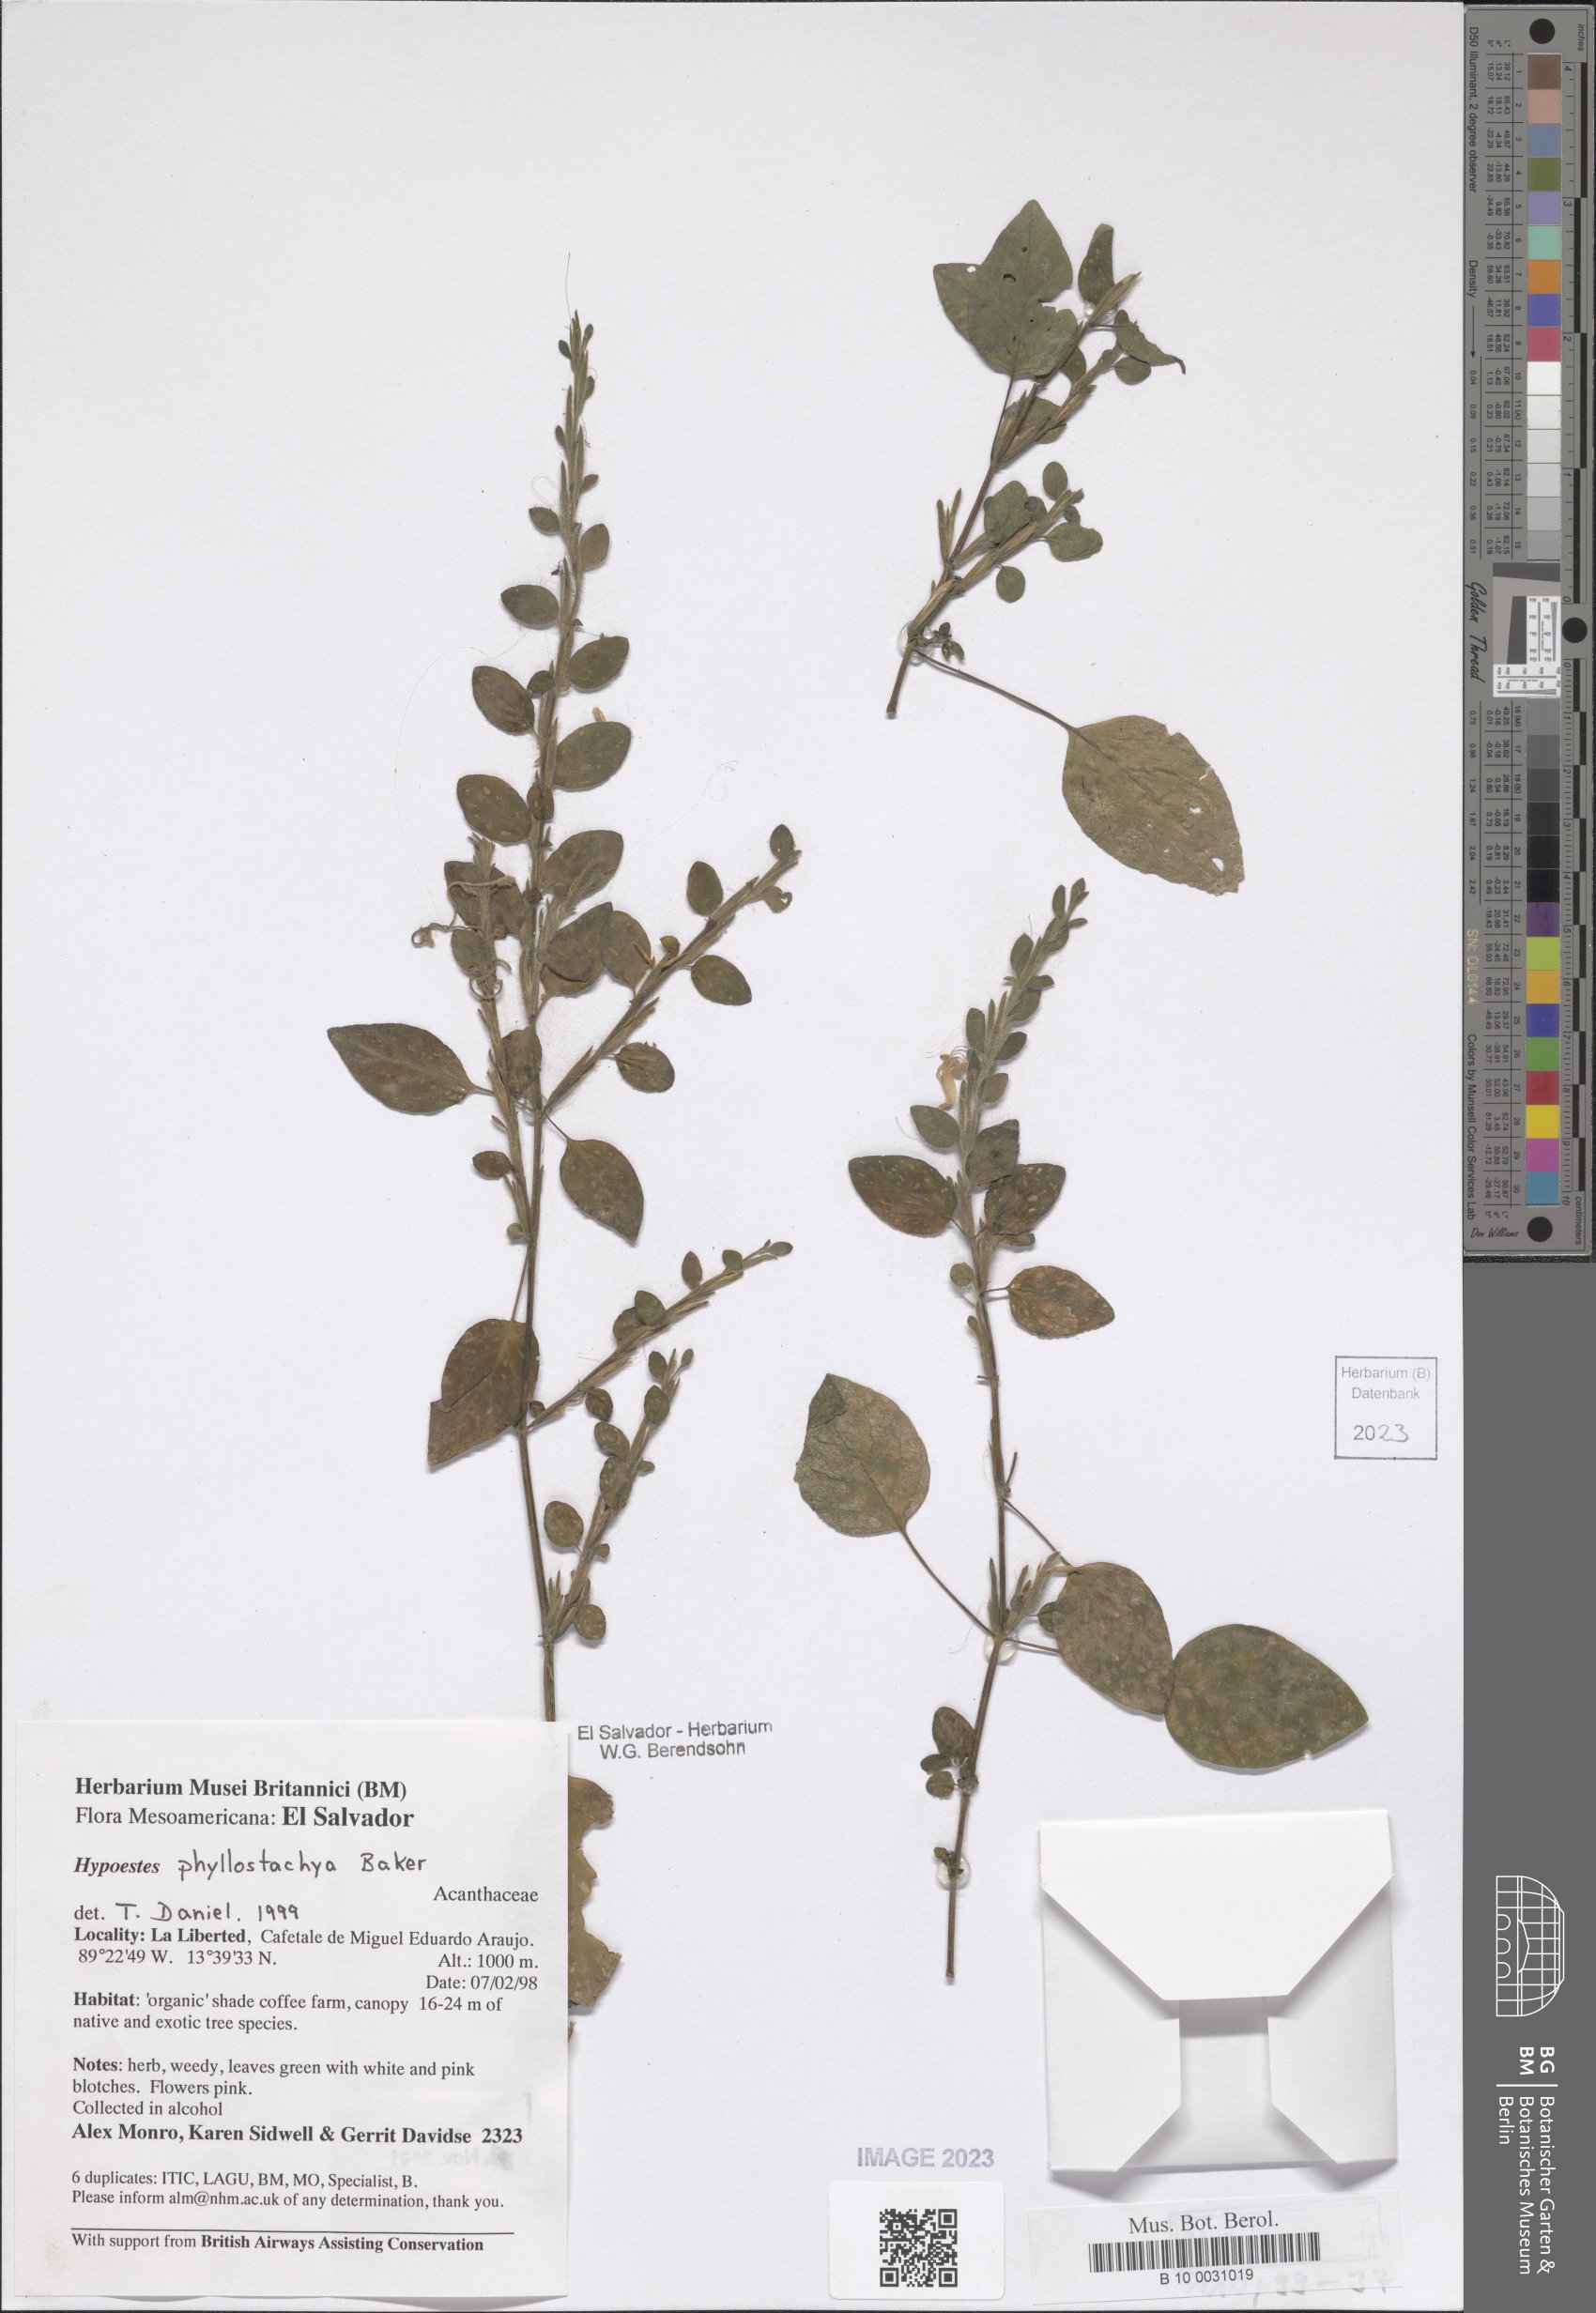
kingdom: Plantae
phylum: Tracheophyta
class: Magnoliopsida
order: Lamiales
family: Acanthaceae
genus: Hypoestes
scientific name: Hypoestes phyllostachya
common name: Polkadot-plant
